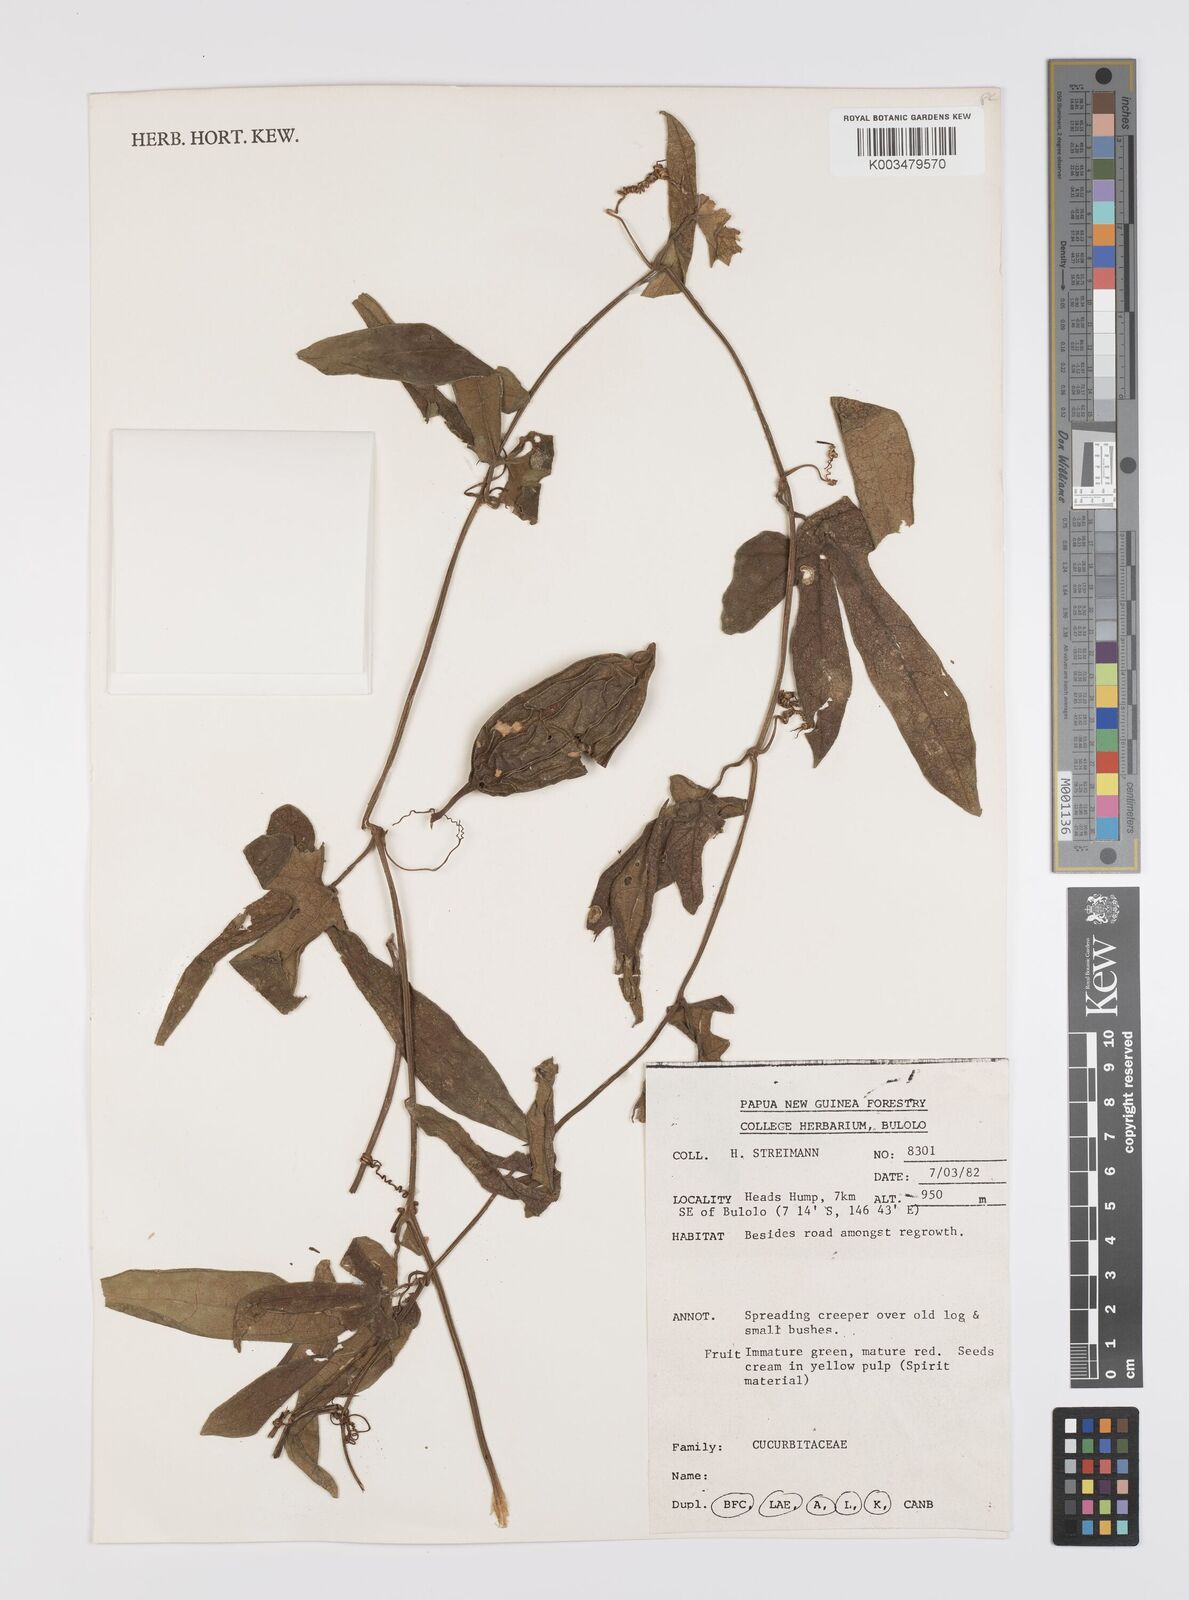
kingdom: Plantae
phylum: Tracheophyta
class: Magnoliopsida
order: Cucurbitales
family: Cucurbitaceae
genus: Trichosanthes
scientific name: Trichosanthes ovigera
